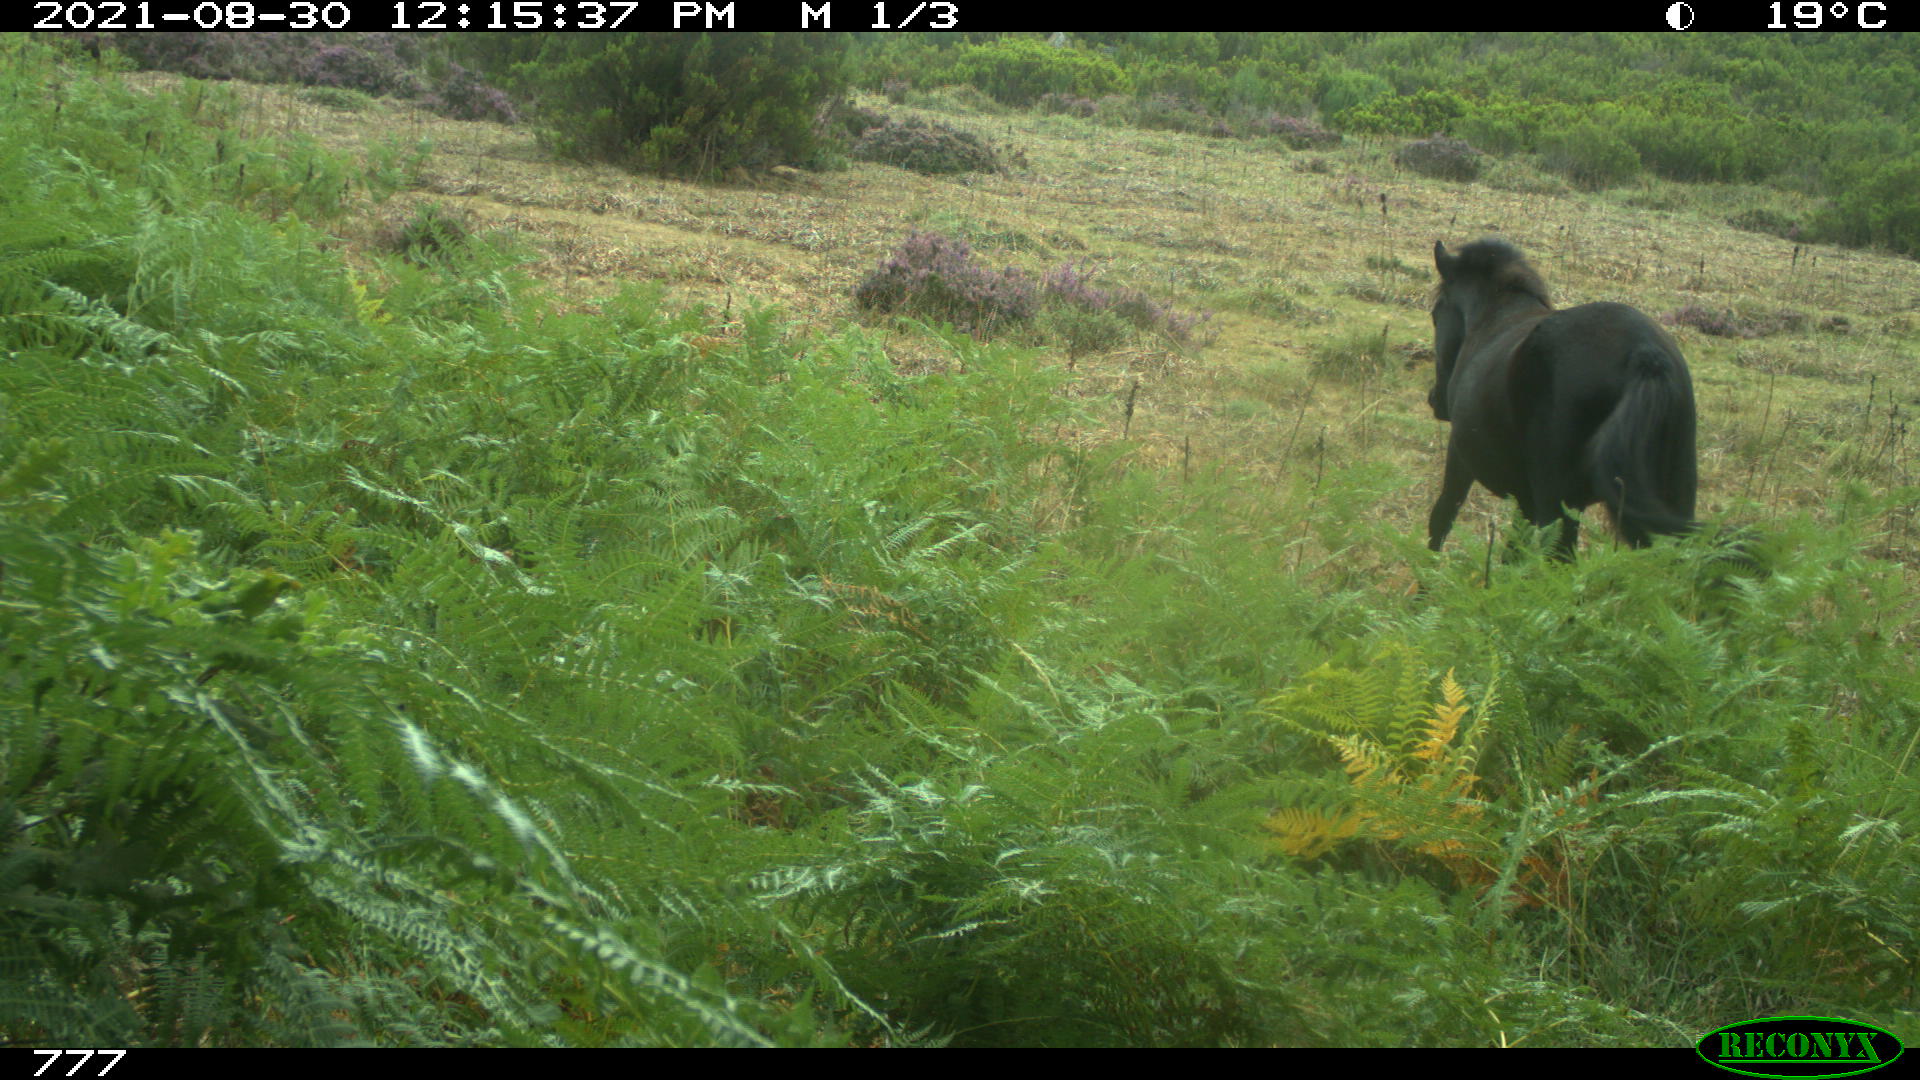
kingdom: Animalia
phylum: Chordata
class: Mammalia
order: Perissodactyla
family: Equidae
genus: Equus
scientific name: Equus caballus
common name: Horse
